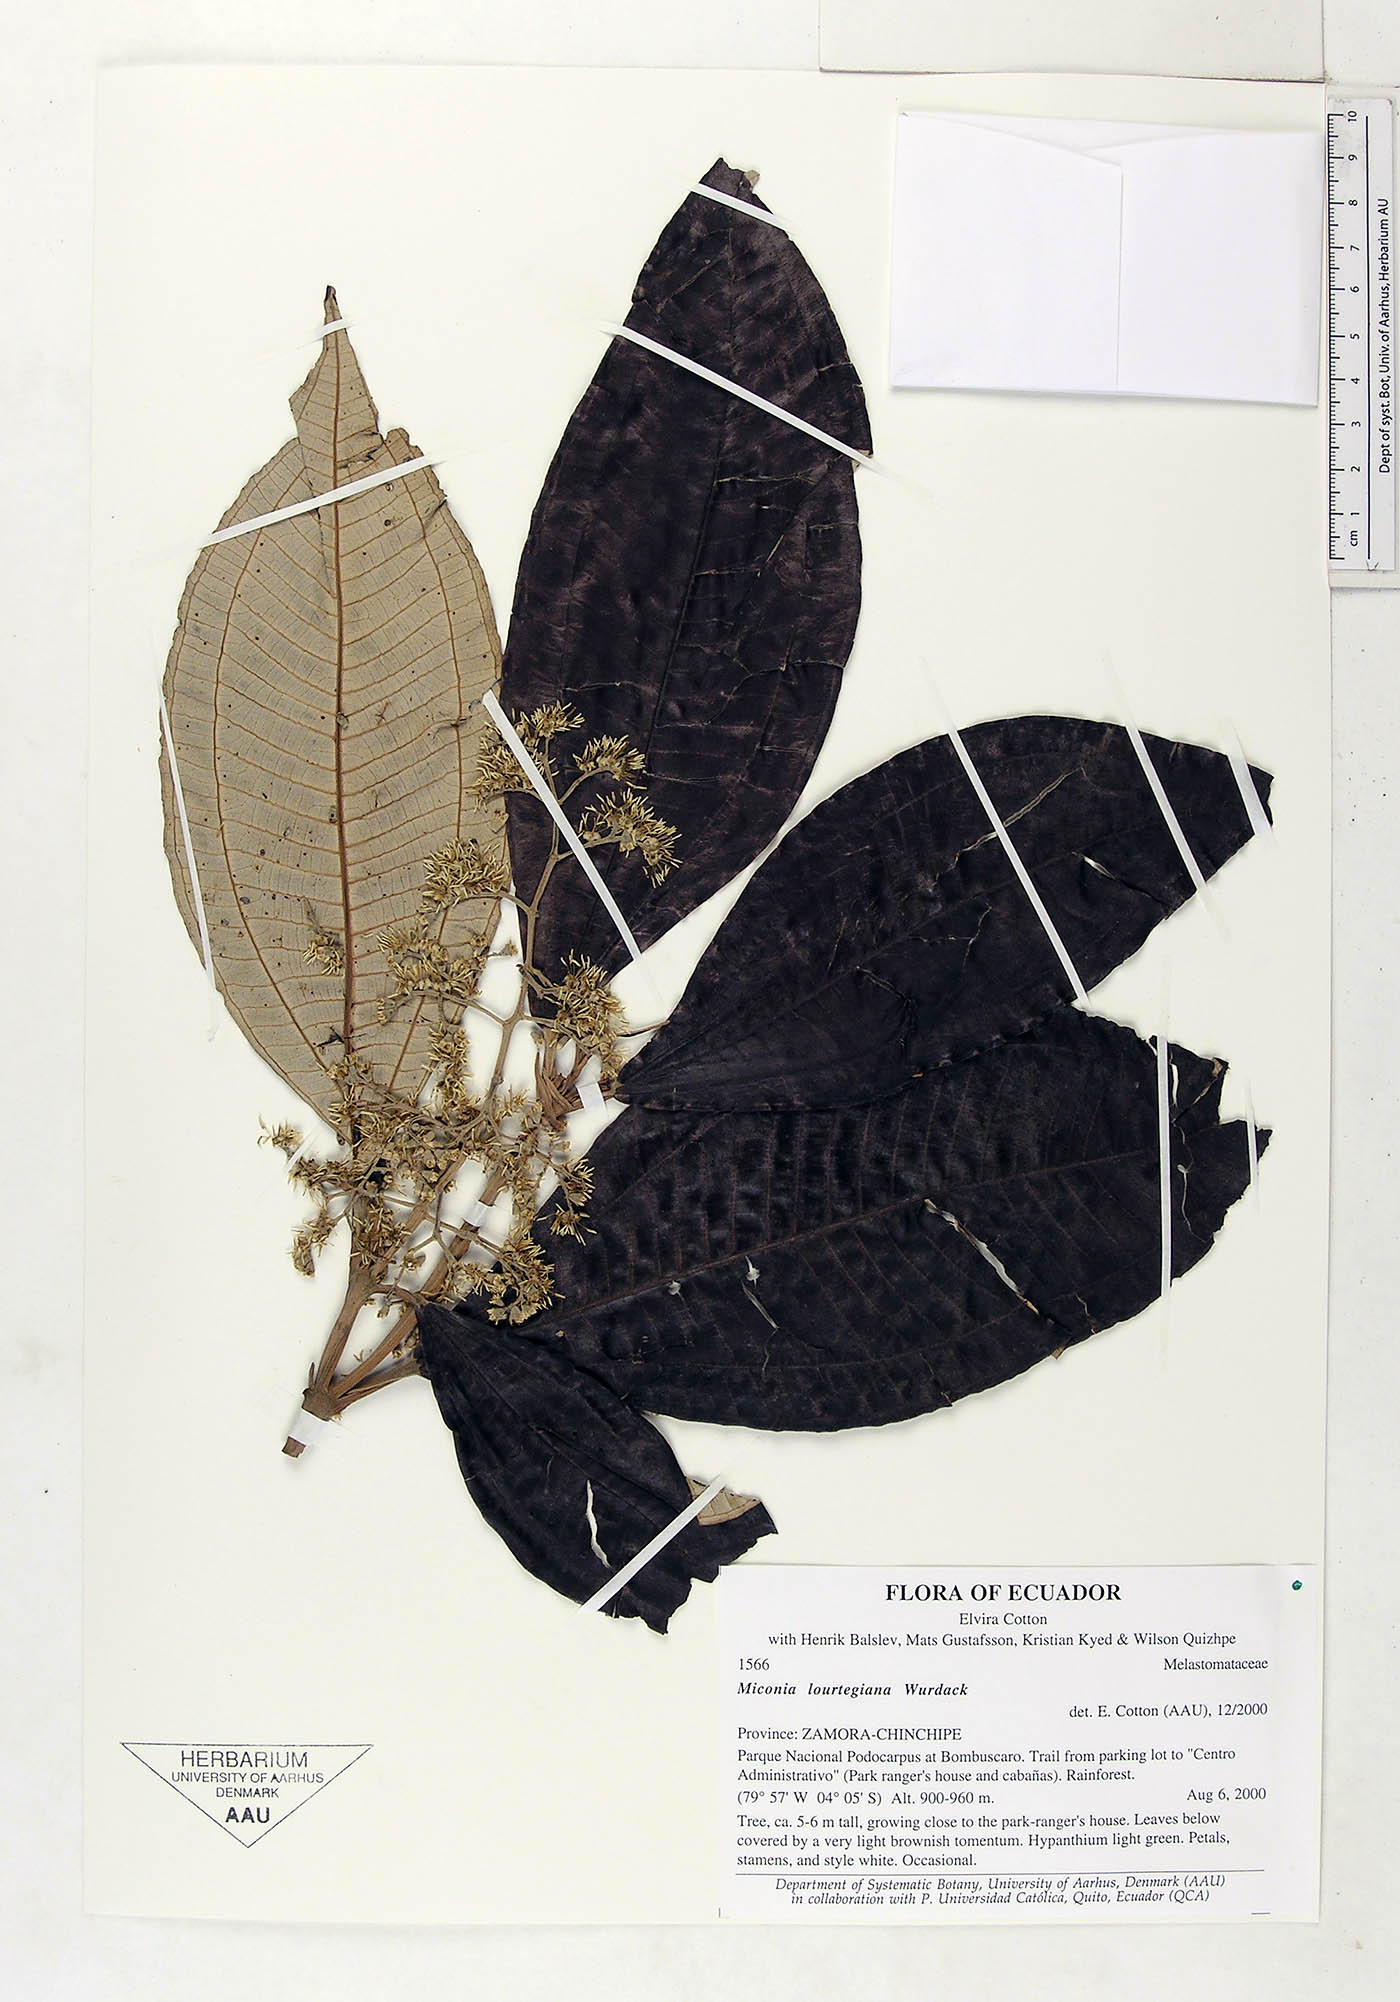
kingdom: Plantae
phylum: Tracheophyta
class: Magnoliopsida
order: Myrtales
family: Melastomataceae
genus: Miconia
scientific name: Miconia lourteigiana
